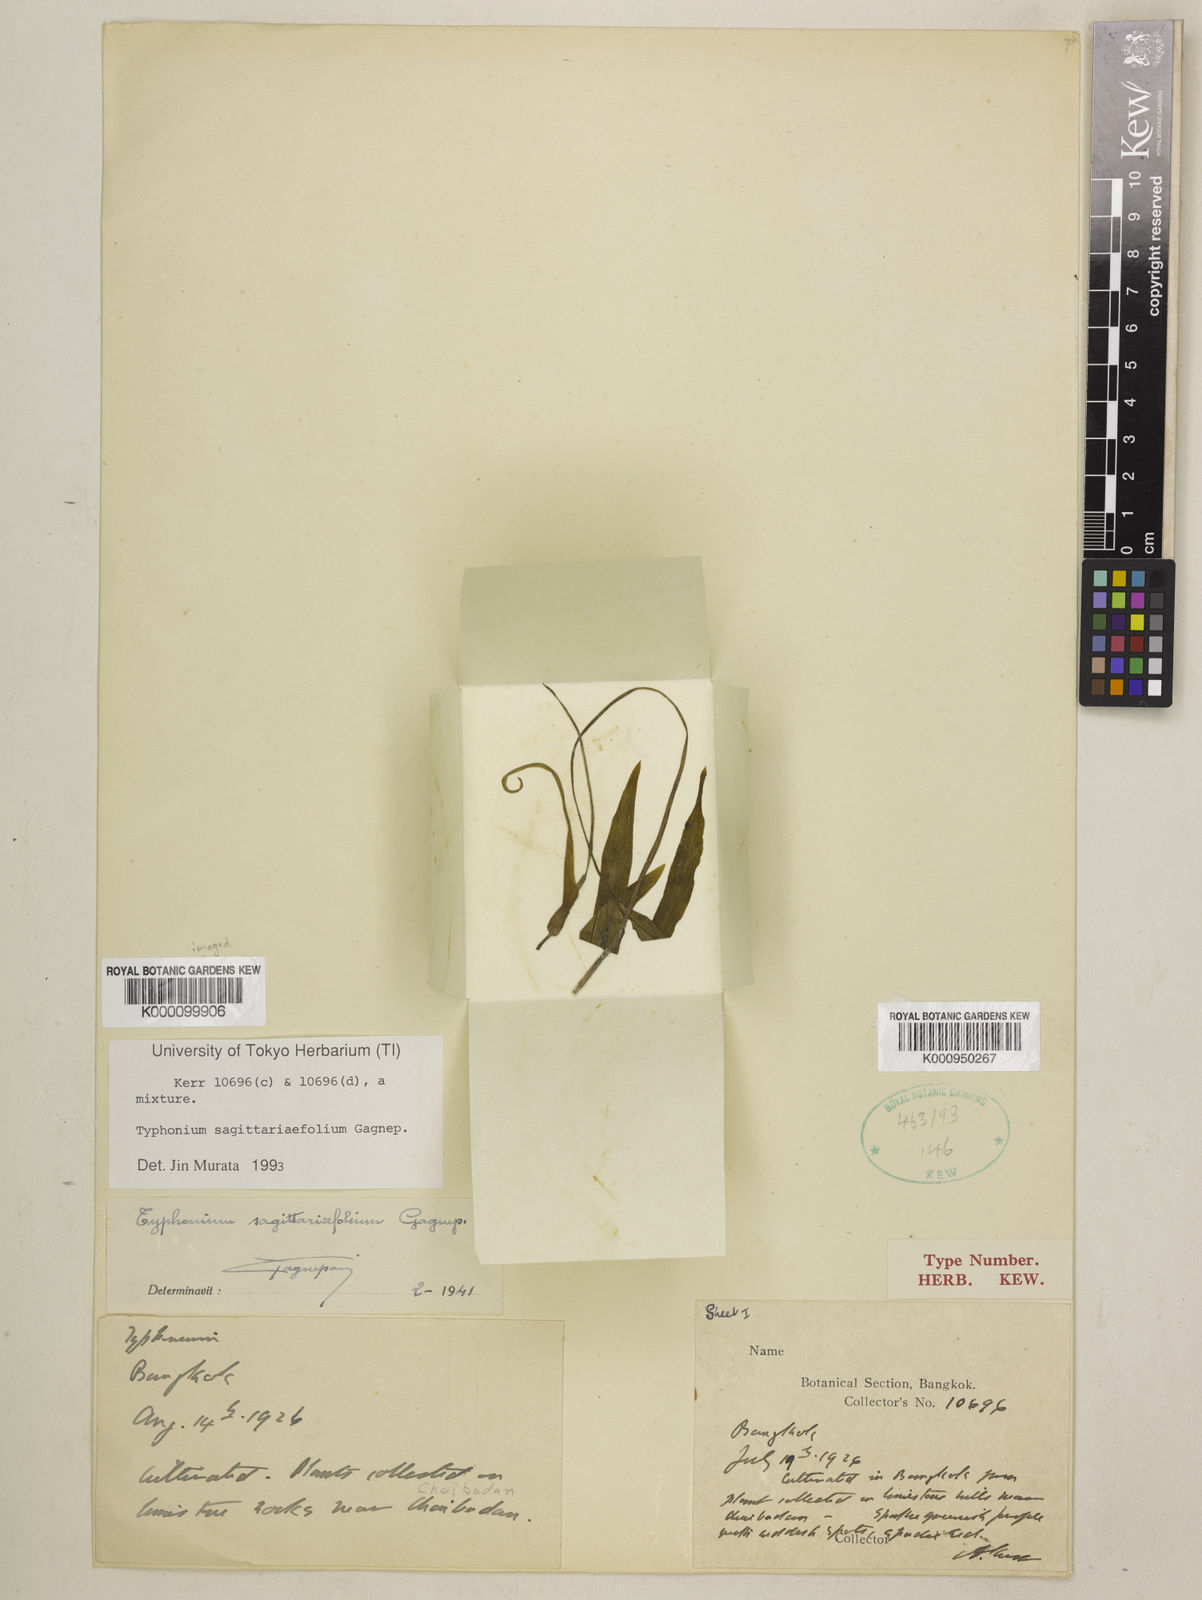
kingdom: Plantae
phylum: Tracheophyta
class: Liliopsida
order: Alismatales
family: Araceae
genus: Typhonium
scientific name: Typhonium sagittariifolium
